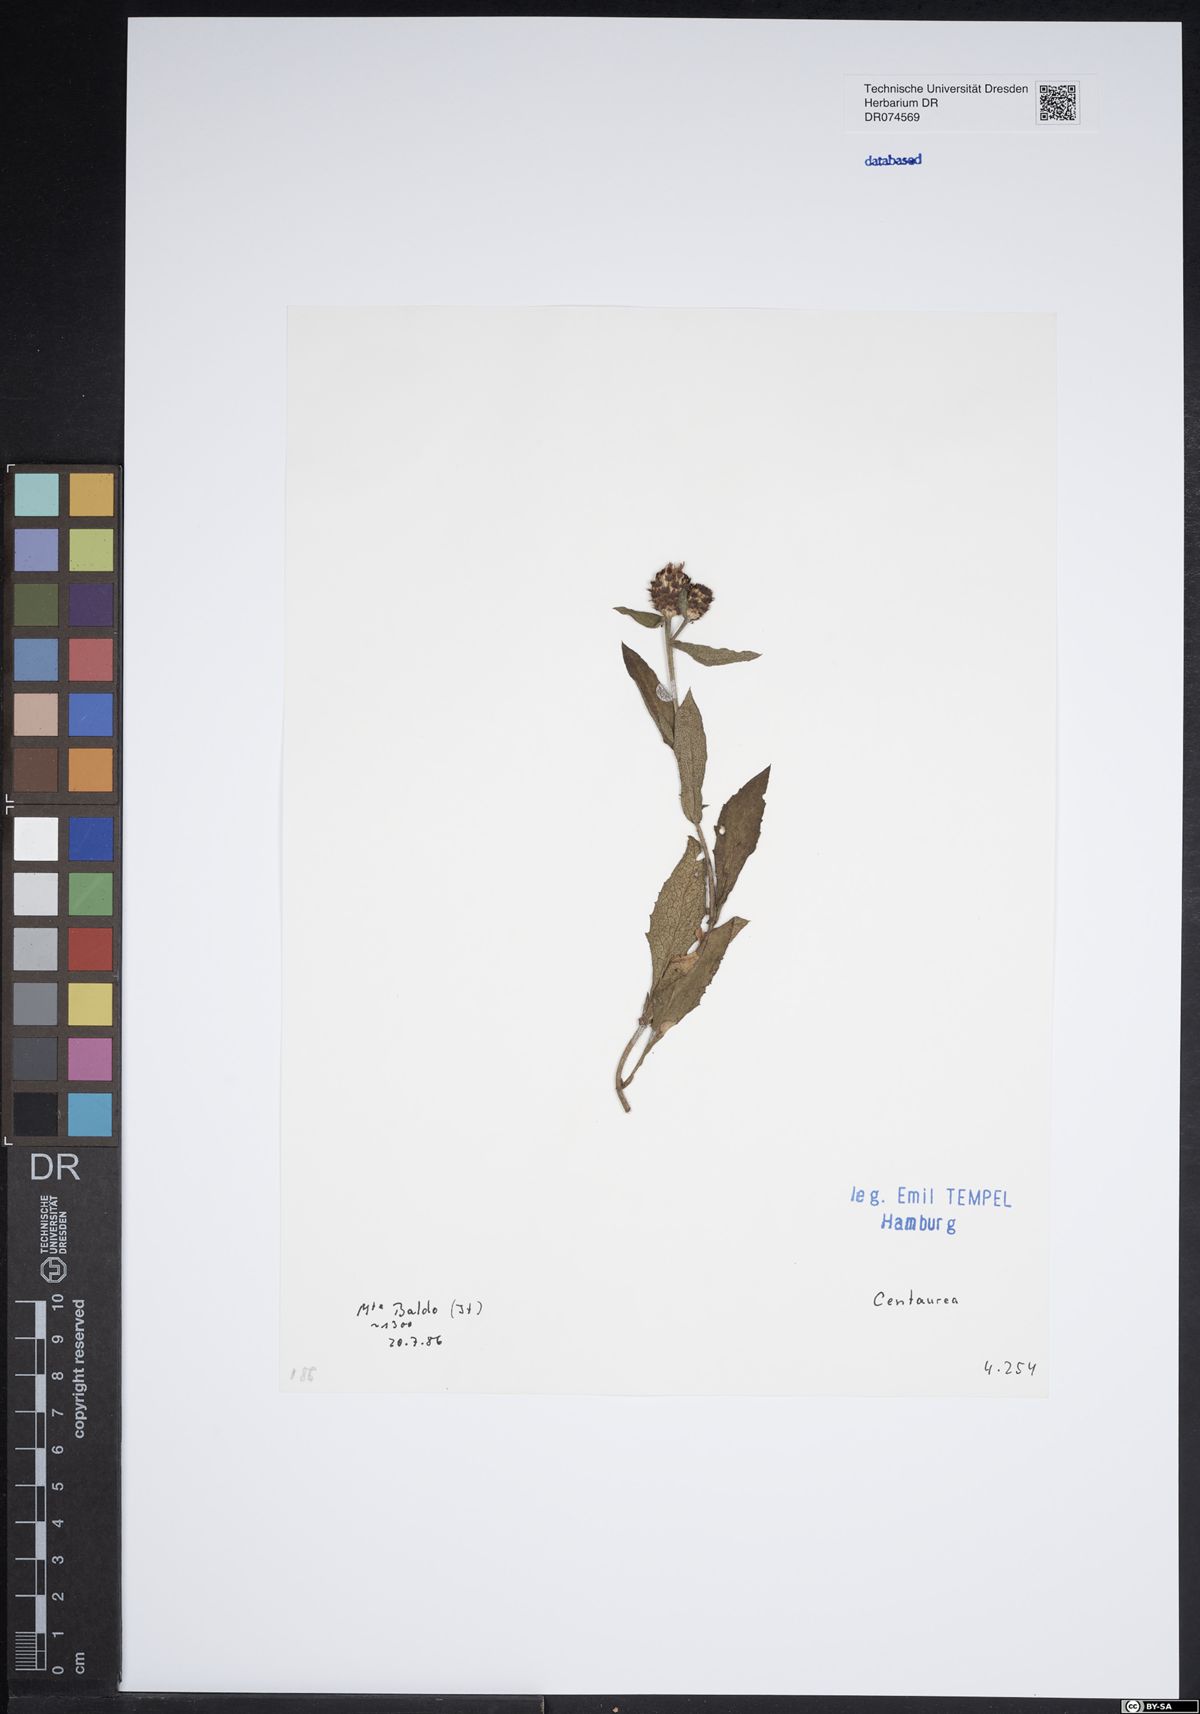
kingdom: Plantae
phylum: Tracheophyta
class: Magnoliopsida
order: Asterales
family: Asteraceae
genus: Centaurea
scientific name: Centaurea
